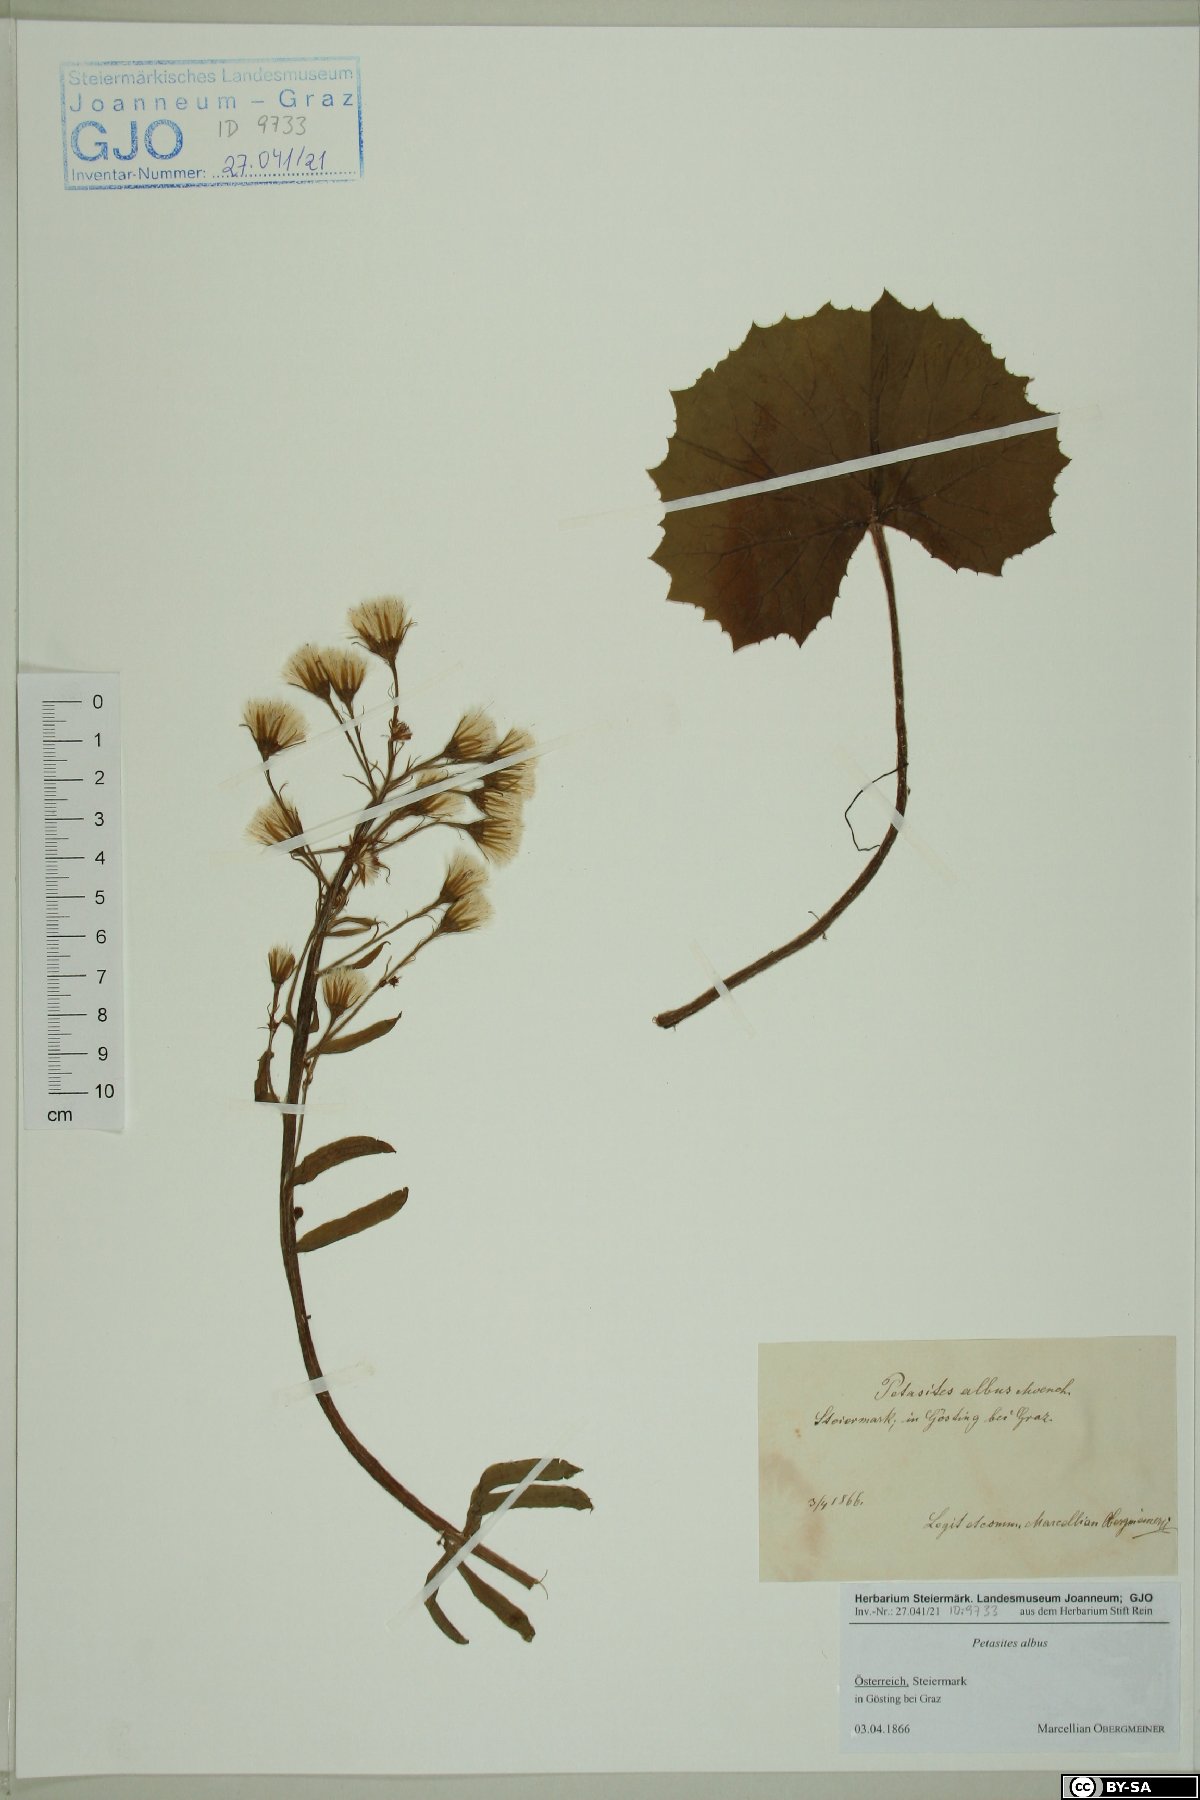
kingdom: Plantae
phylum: Tracheophyta
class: Magnoliopsida
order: Asterales
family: Asteraceae
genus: Petasites
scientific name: Petasites albus
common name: White butterbur
